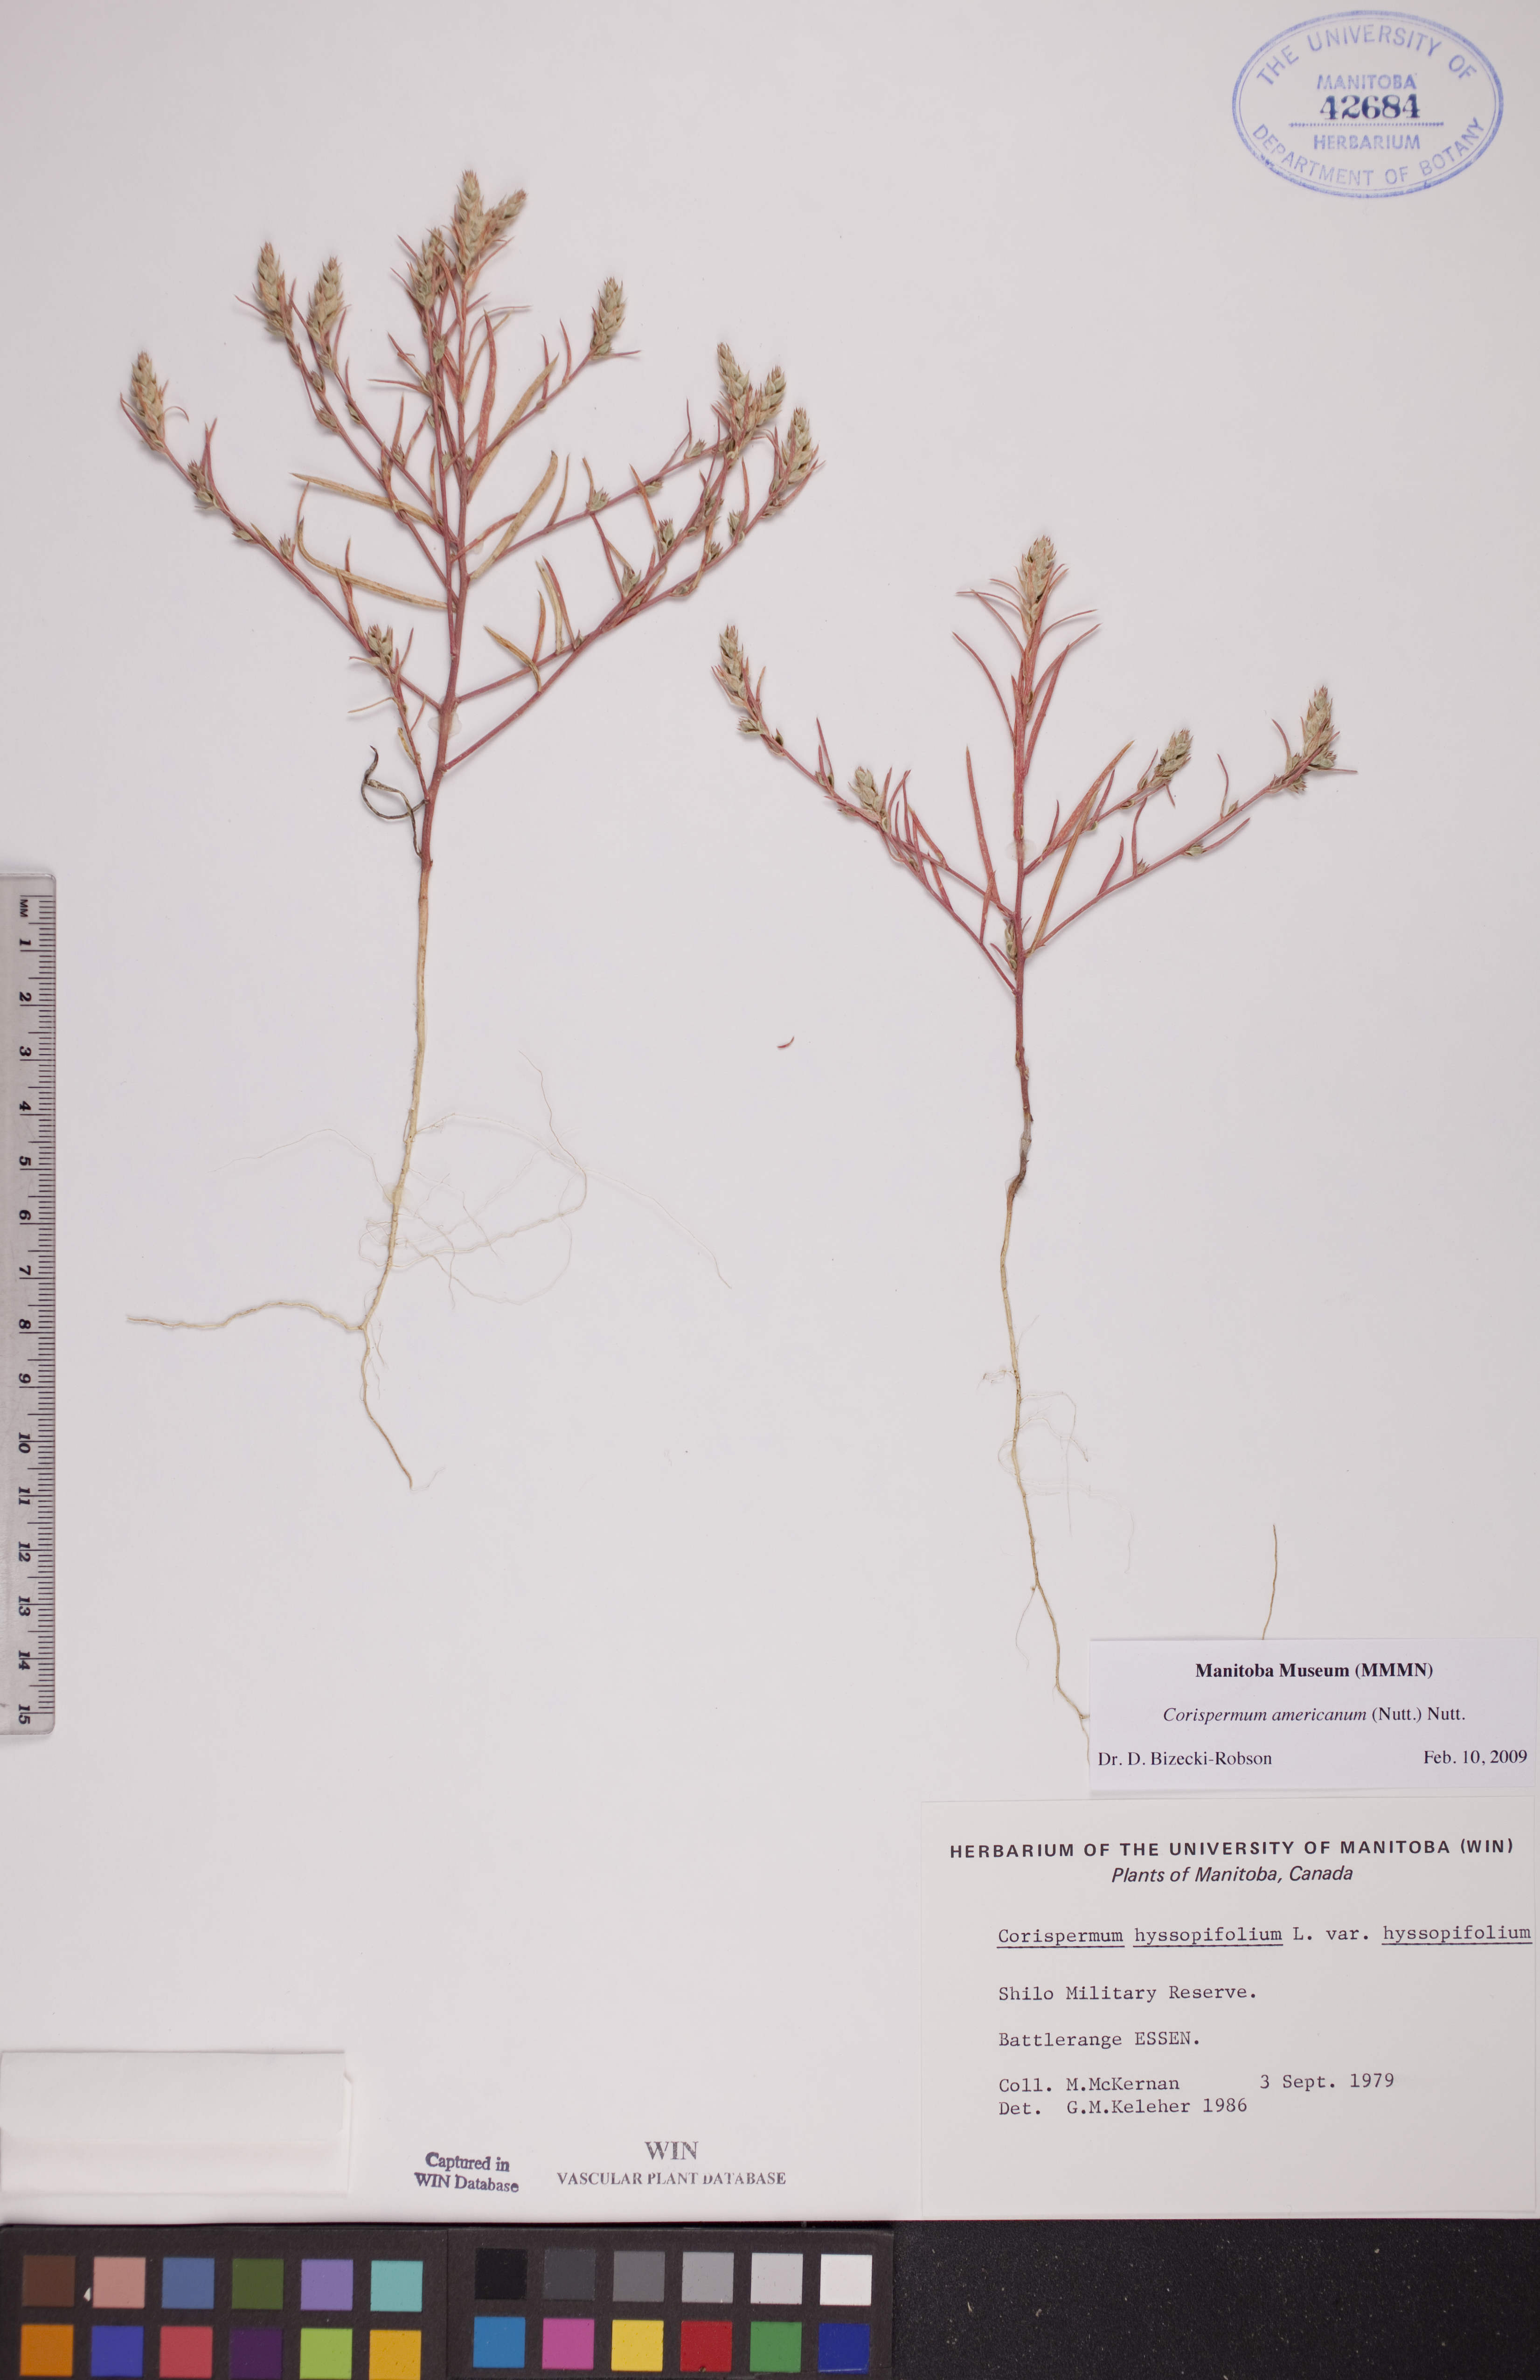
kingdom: Plantae
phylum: Tracheophyta
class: Magnoliopsida
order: Caryophyllales
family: Amaranthaceae
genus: Corispermum
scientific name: Corispermum americanum
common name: American bugseed
